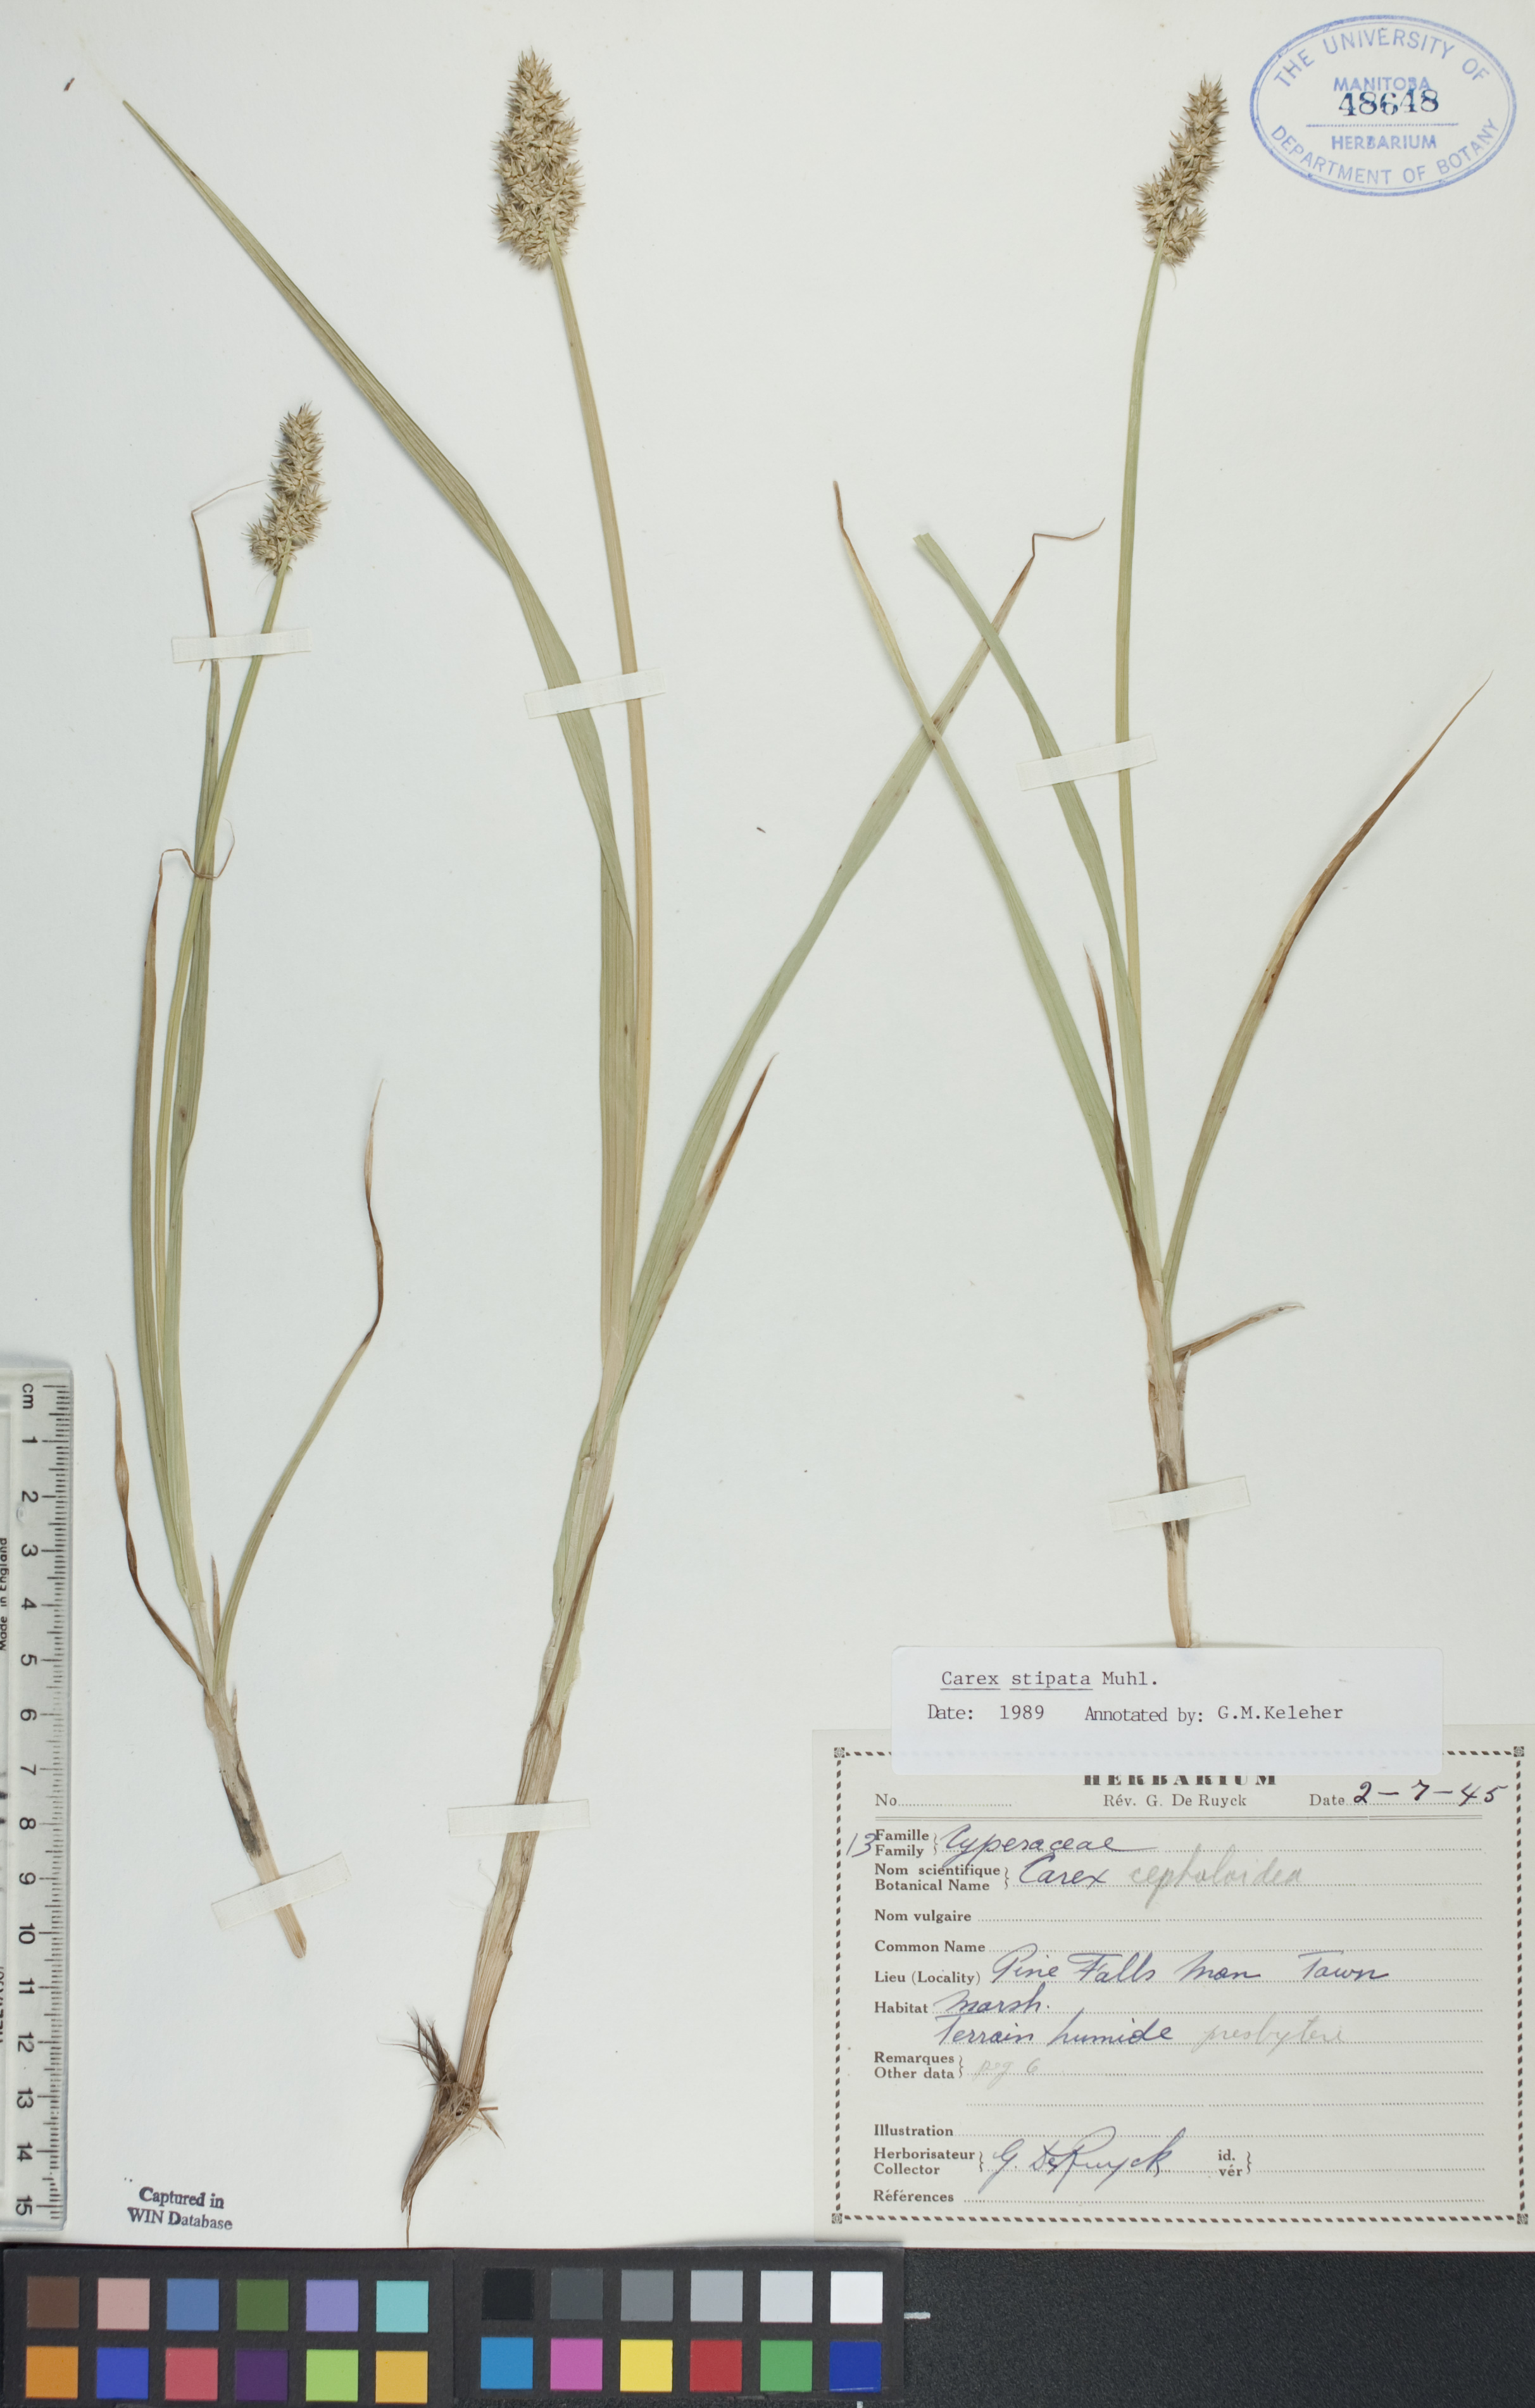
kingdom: Plantae
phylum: Tracheophyta
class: Liliopsida
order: Poales
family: Cyperaceae
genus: Carex
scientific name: Carex stipata
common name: Awl-fruited sedge
